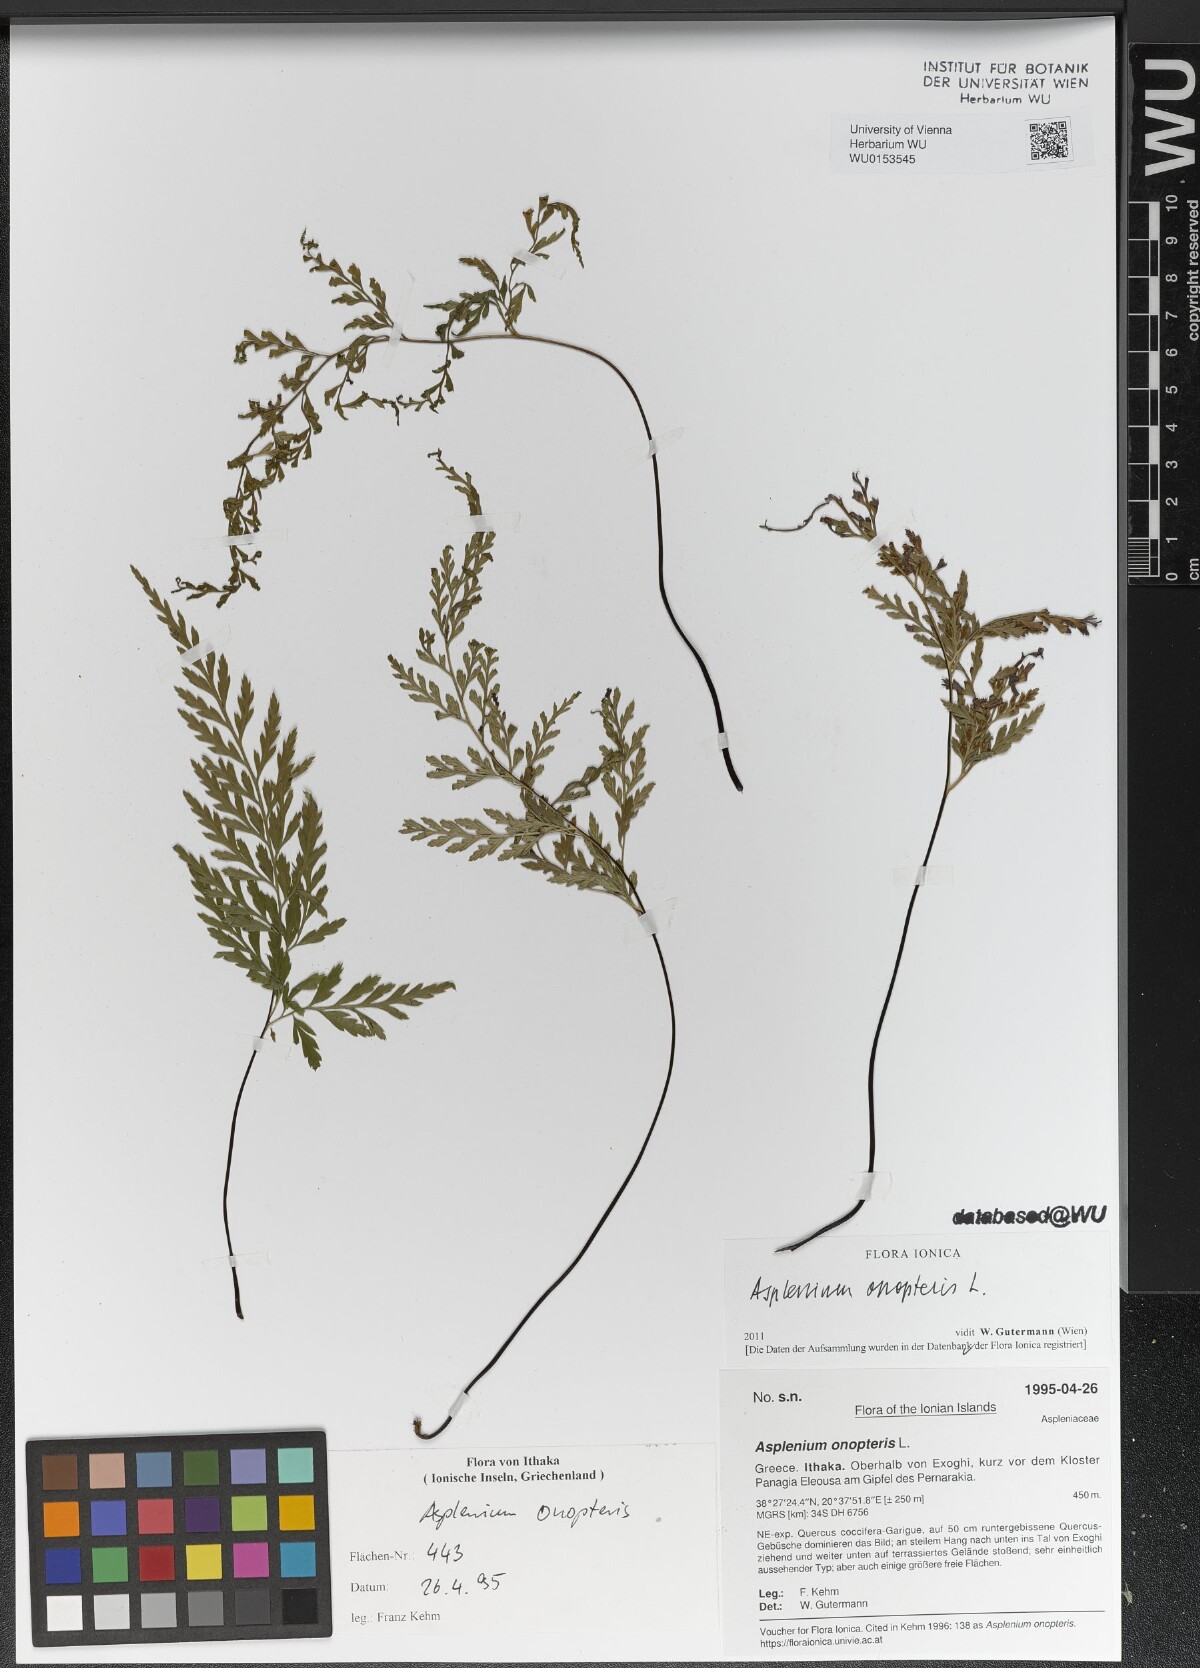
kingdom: Plantae
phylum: Tracheophyta
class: Polypodiopsida
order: Polypodiales
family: Aspleniaceae
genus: Asplenium
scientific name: Asplenium onopteris
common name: Irish spleenwort
